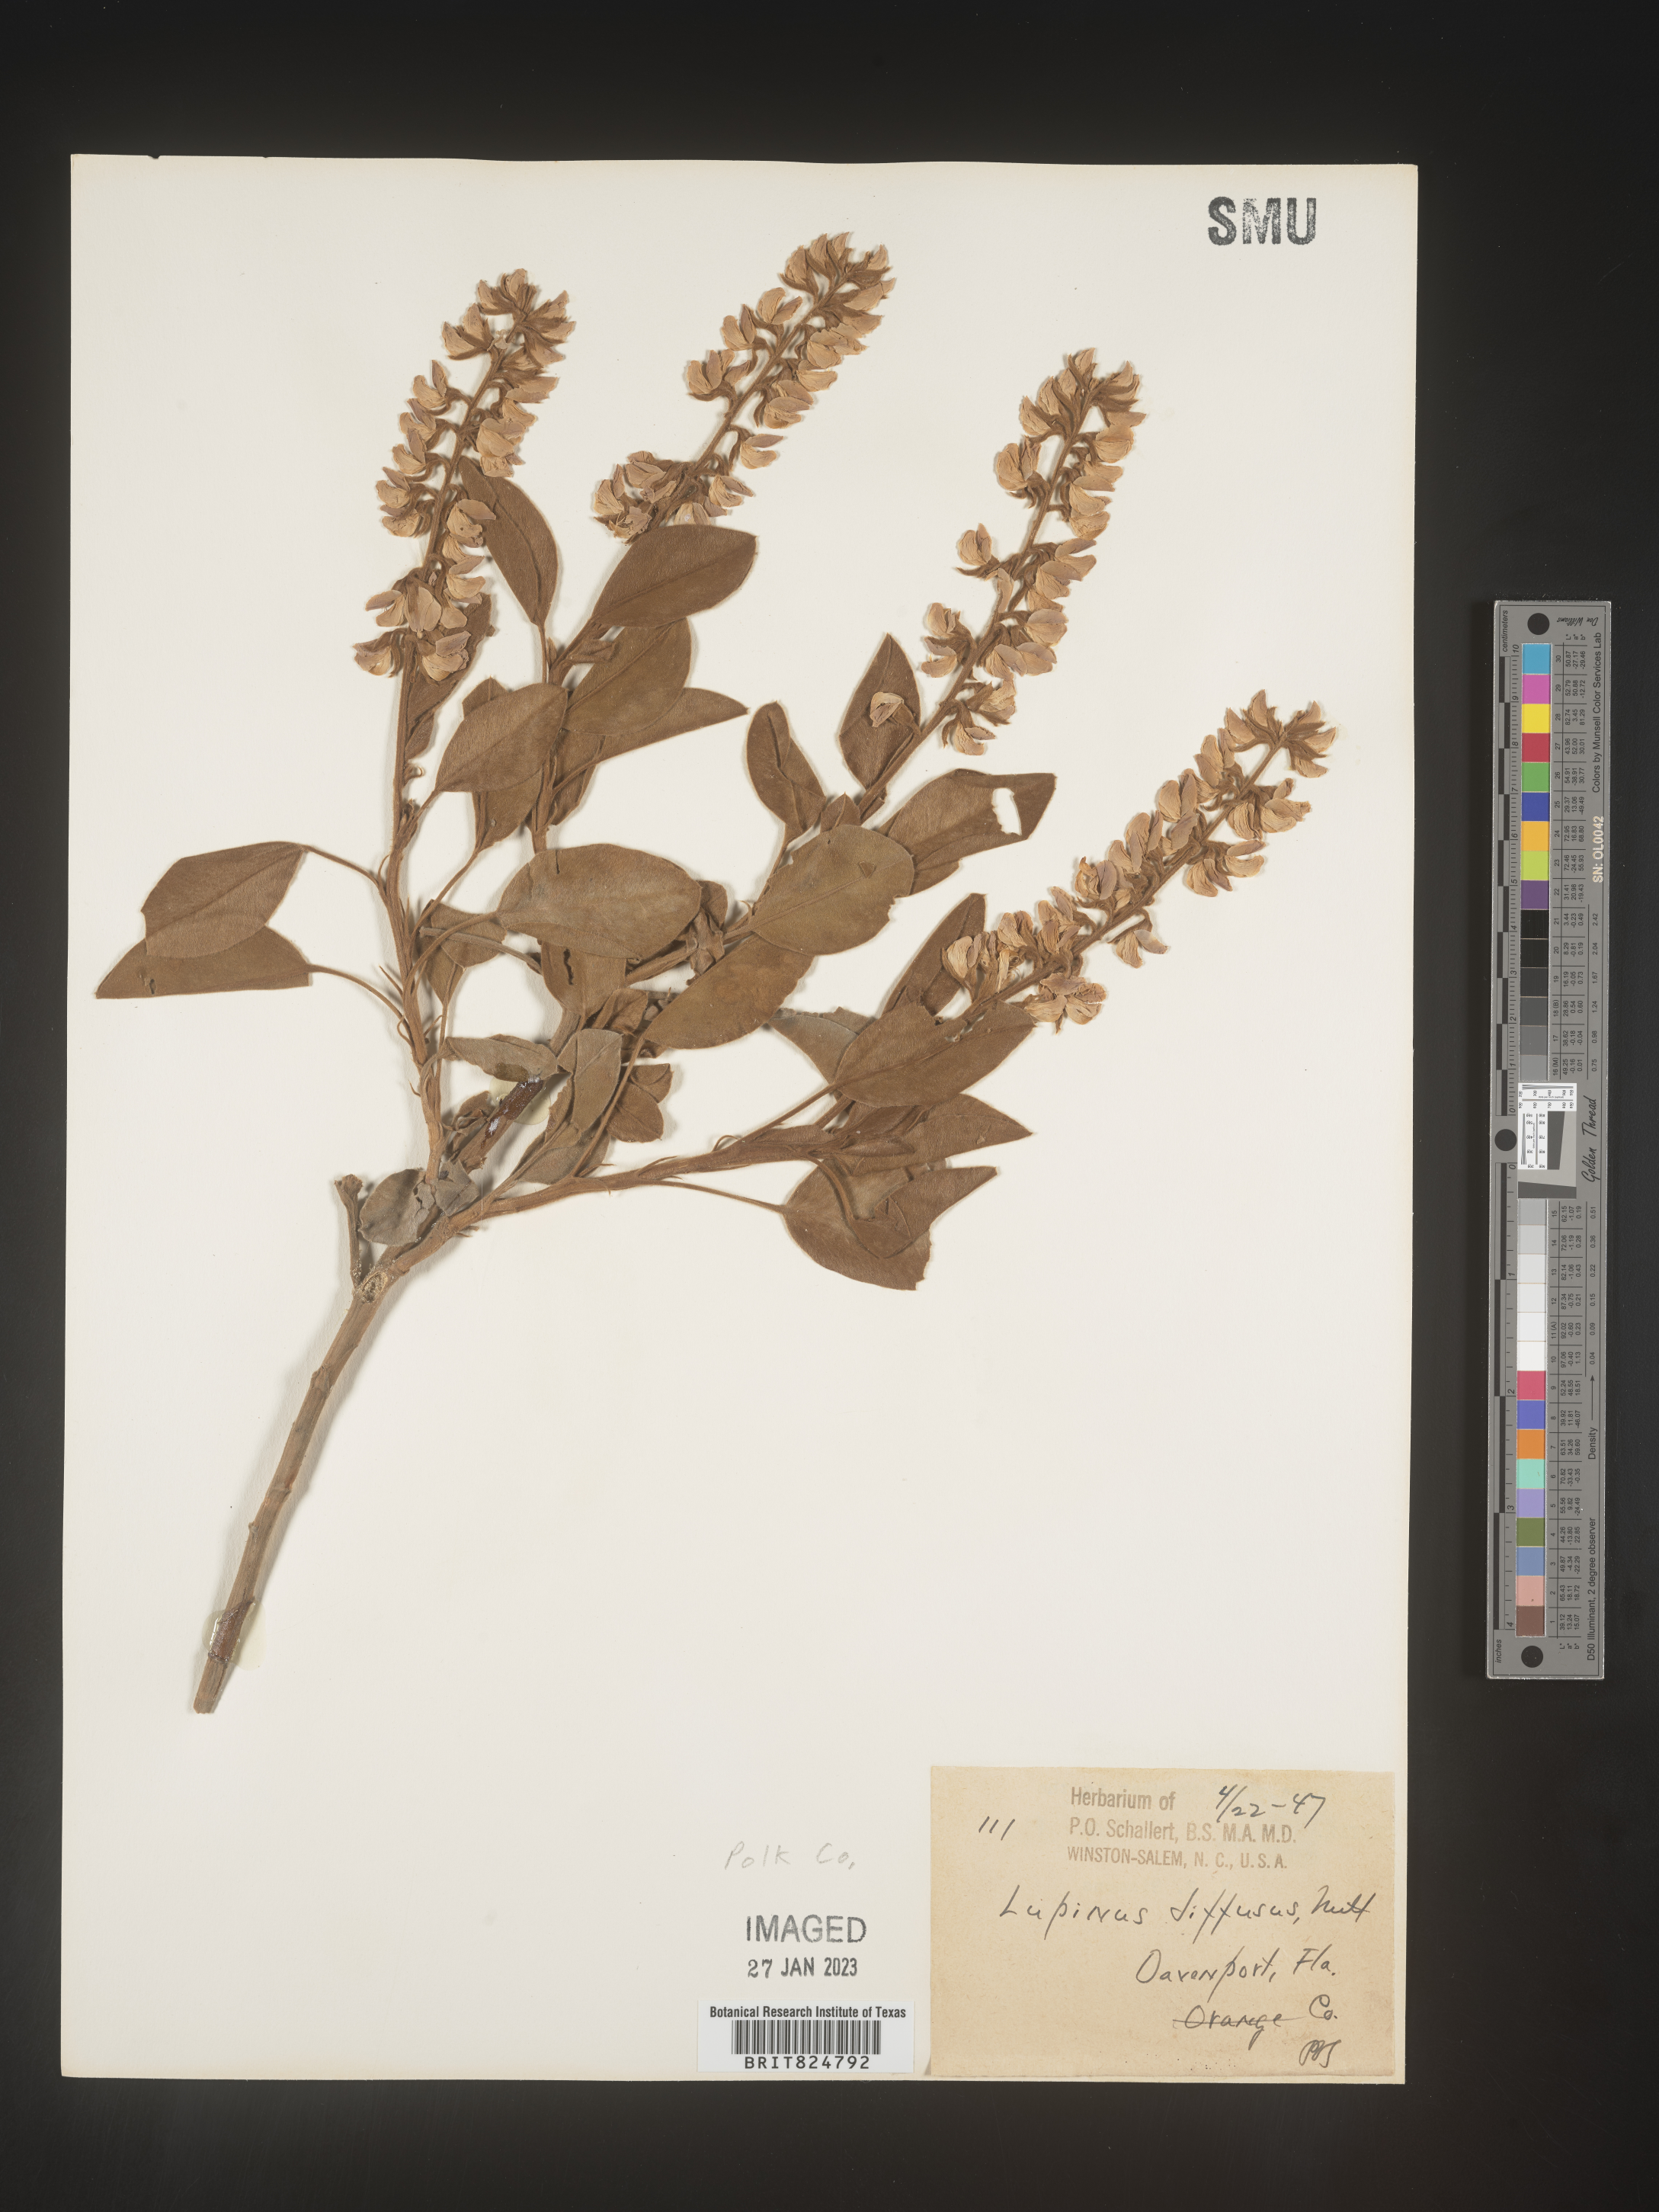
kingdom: Plantae
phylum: Tracheophyta
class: Magnoliopsida
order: Fabales
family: Fabaceae
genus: Lupinus
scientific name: Lupinus diffusus
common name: Oak ridge lupine
